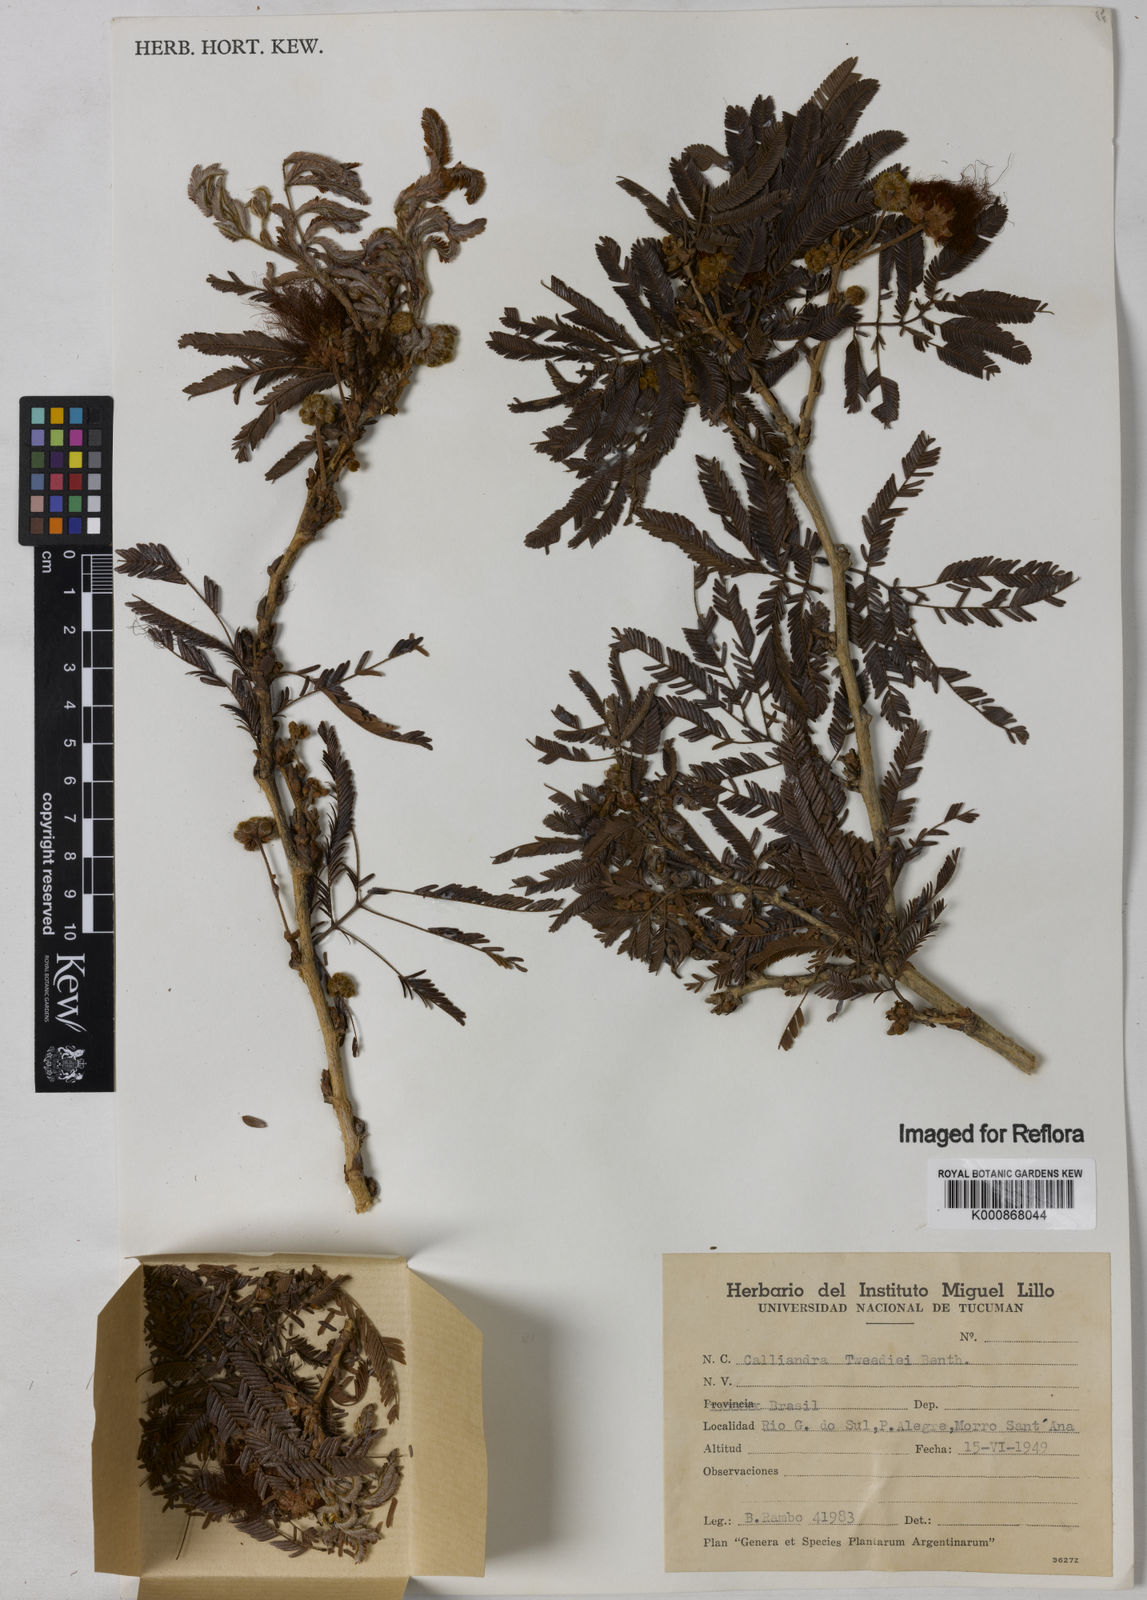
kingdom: Plantae
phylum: Tracheophyta
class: Magnoliopsida
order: Fabales
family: Fabaceae
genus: Calliandra
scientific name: Calliandra tweediei
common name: Mexican flamebush
